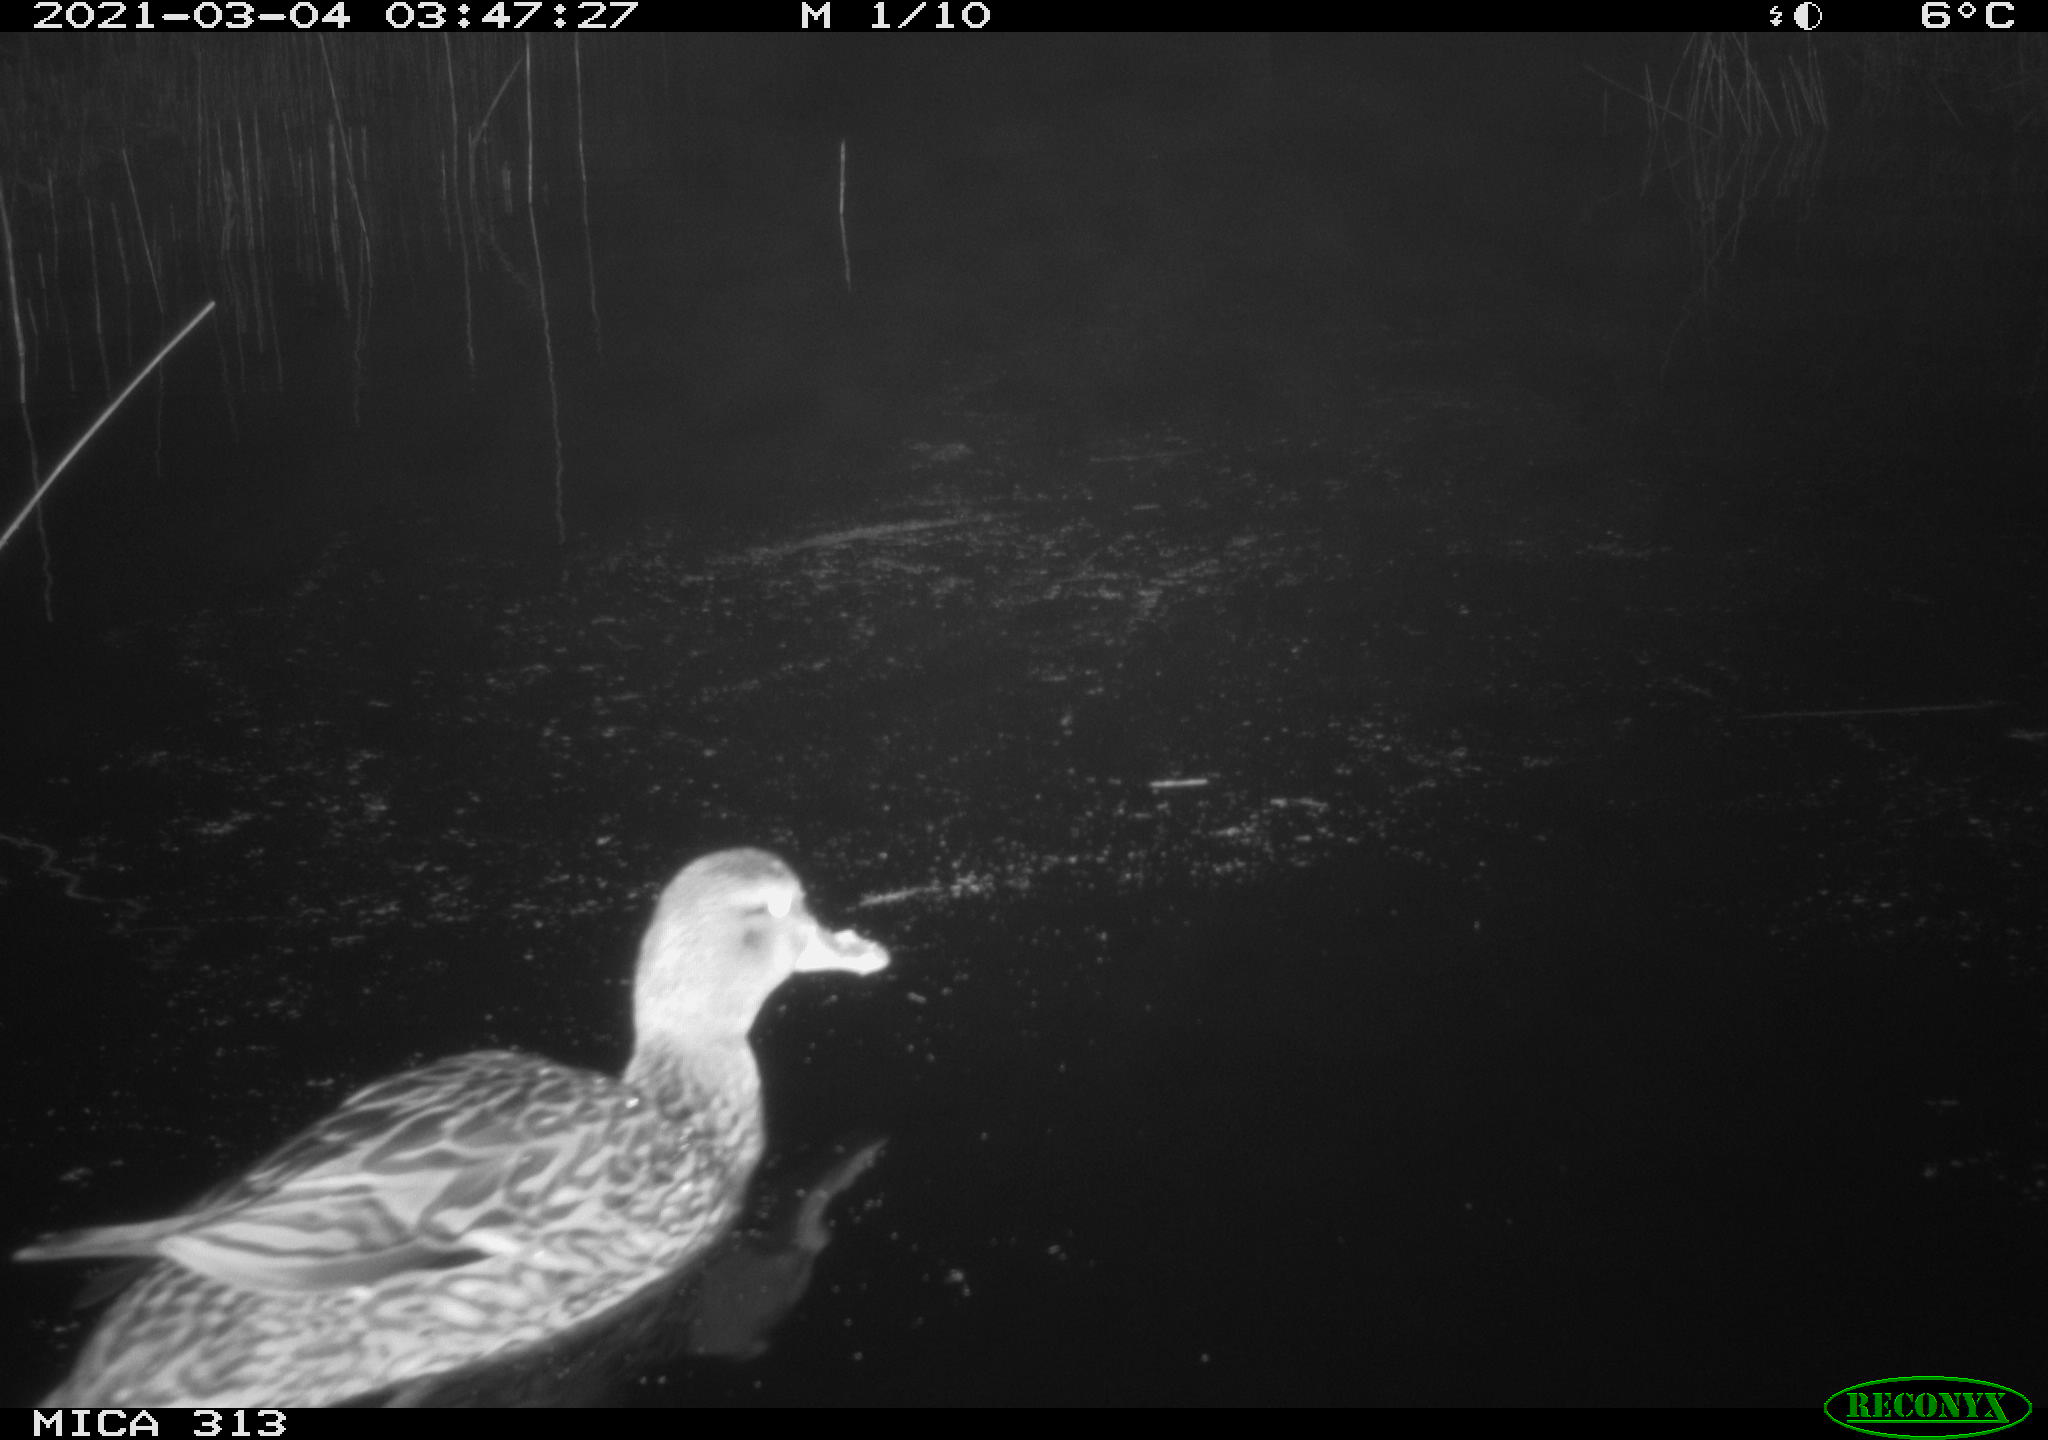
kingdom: Animalia
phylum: Chordata
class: Aves
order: Anseriformes
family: Anatidae
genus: Mareca
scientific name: Mareca strepera
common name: Gadwall
